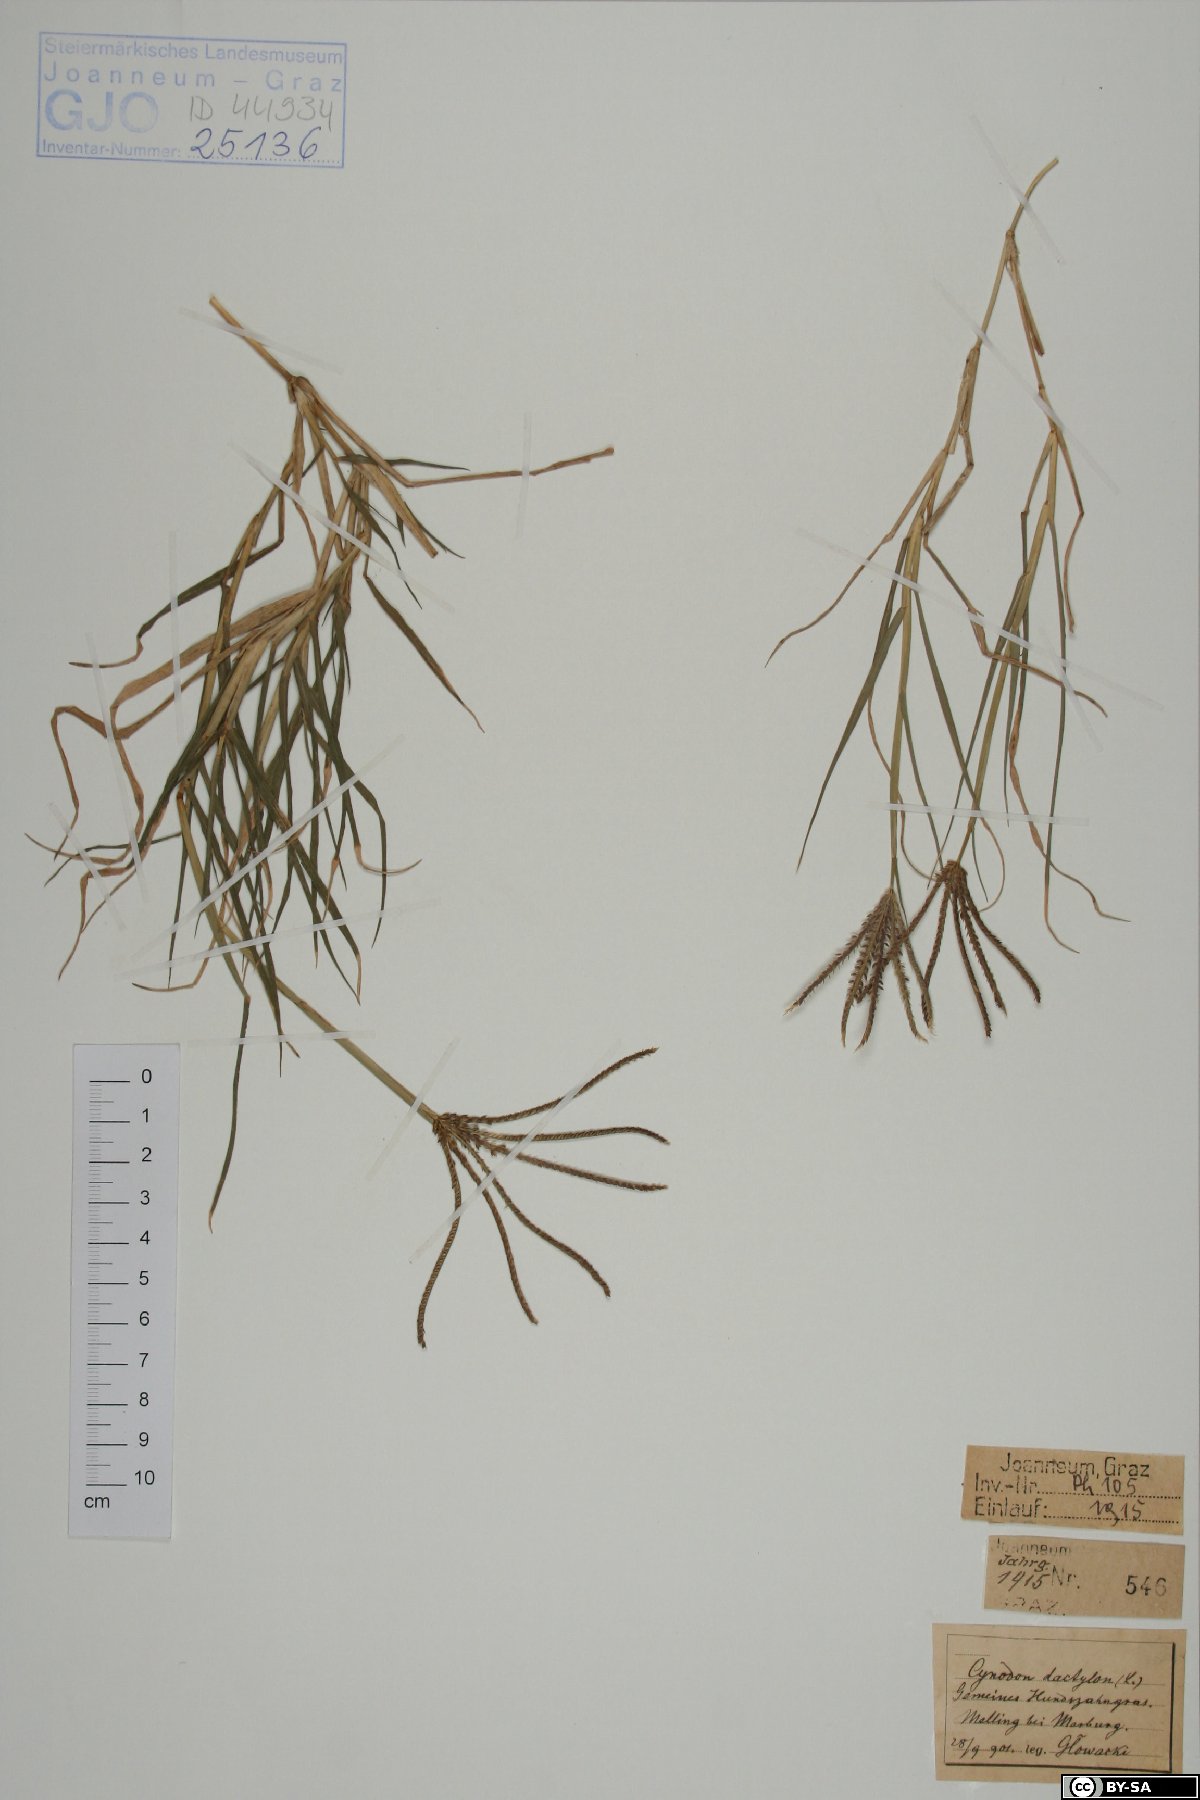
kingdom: Plantae
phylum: Tracheophyta
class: Liliopsida
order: Poales
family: Poaceae
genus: Cynodon
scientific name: Cynodon dactylon
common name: Bermuda grass
